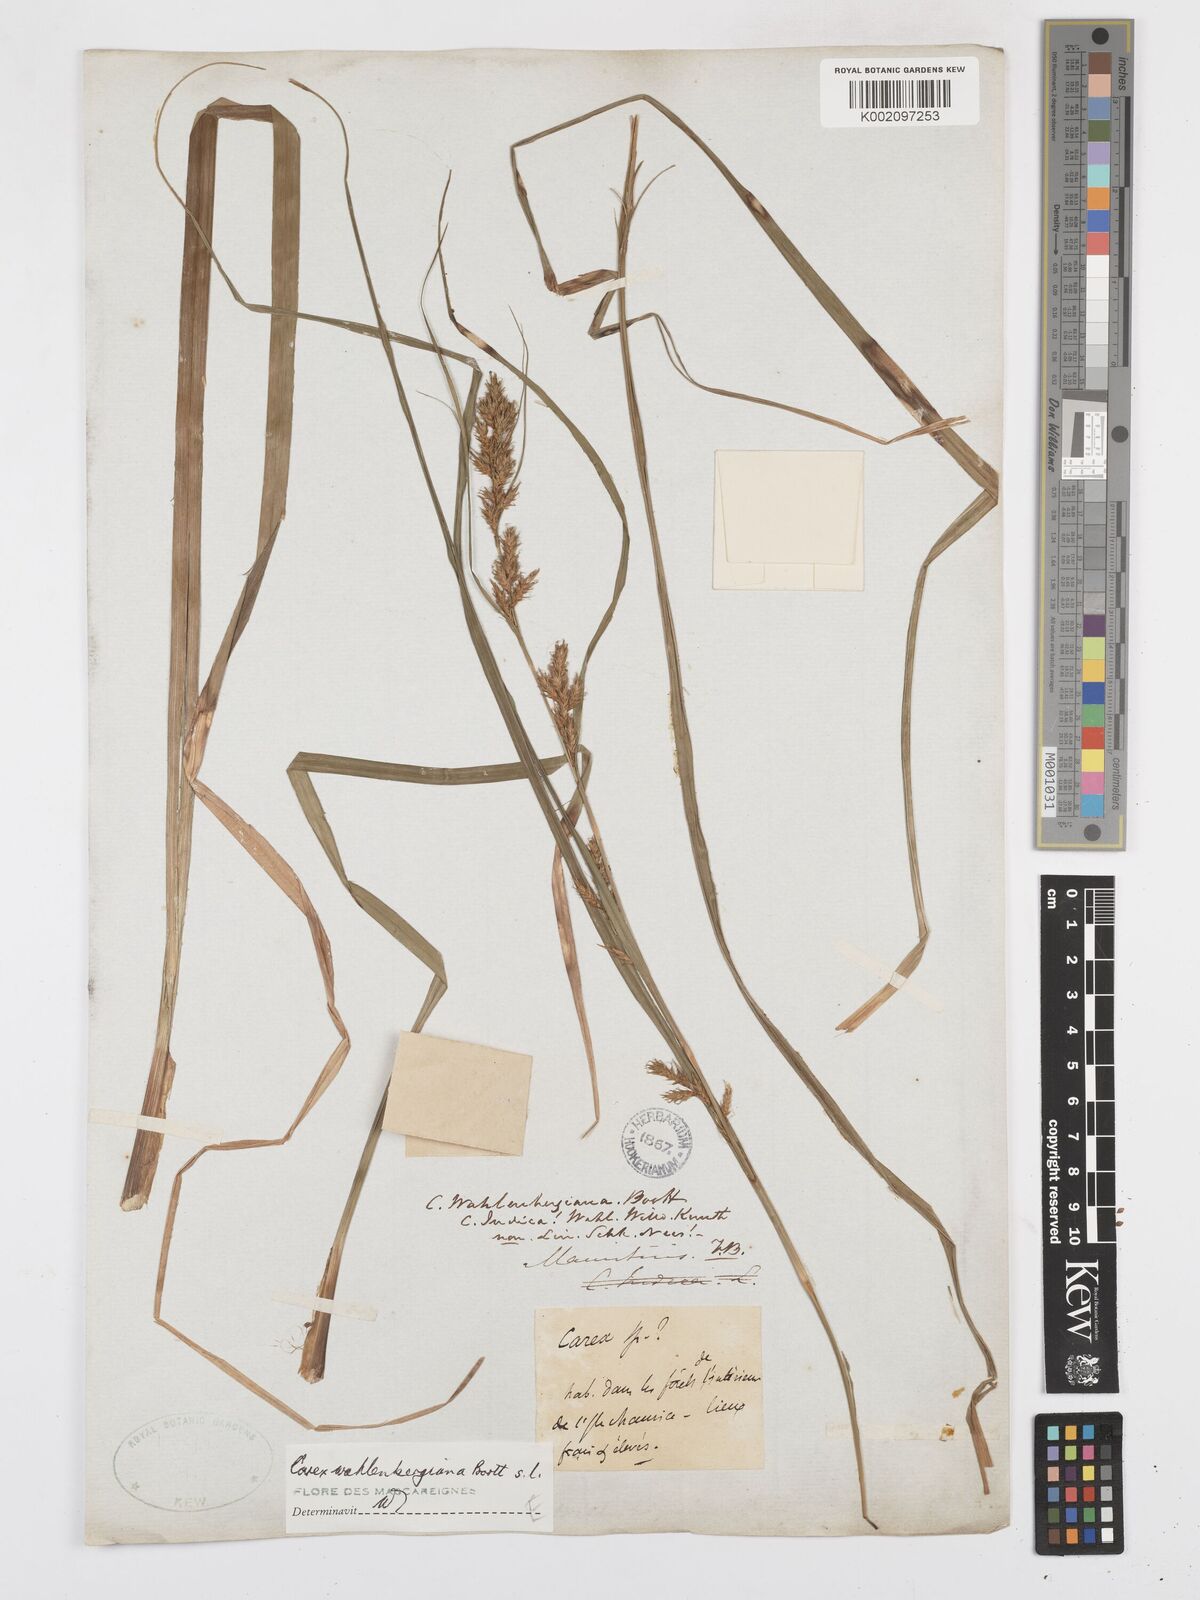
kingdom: Plantae
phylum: Tracheophyta
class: Liliopsida
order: Poales
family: Cyperaceae
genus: Carex
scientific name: Carex wahlenbergiana
